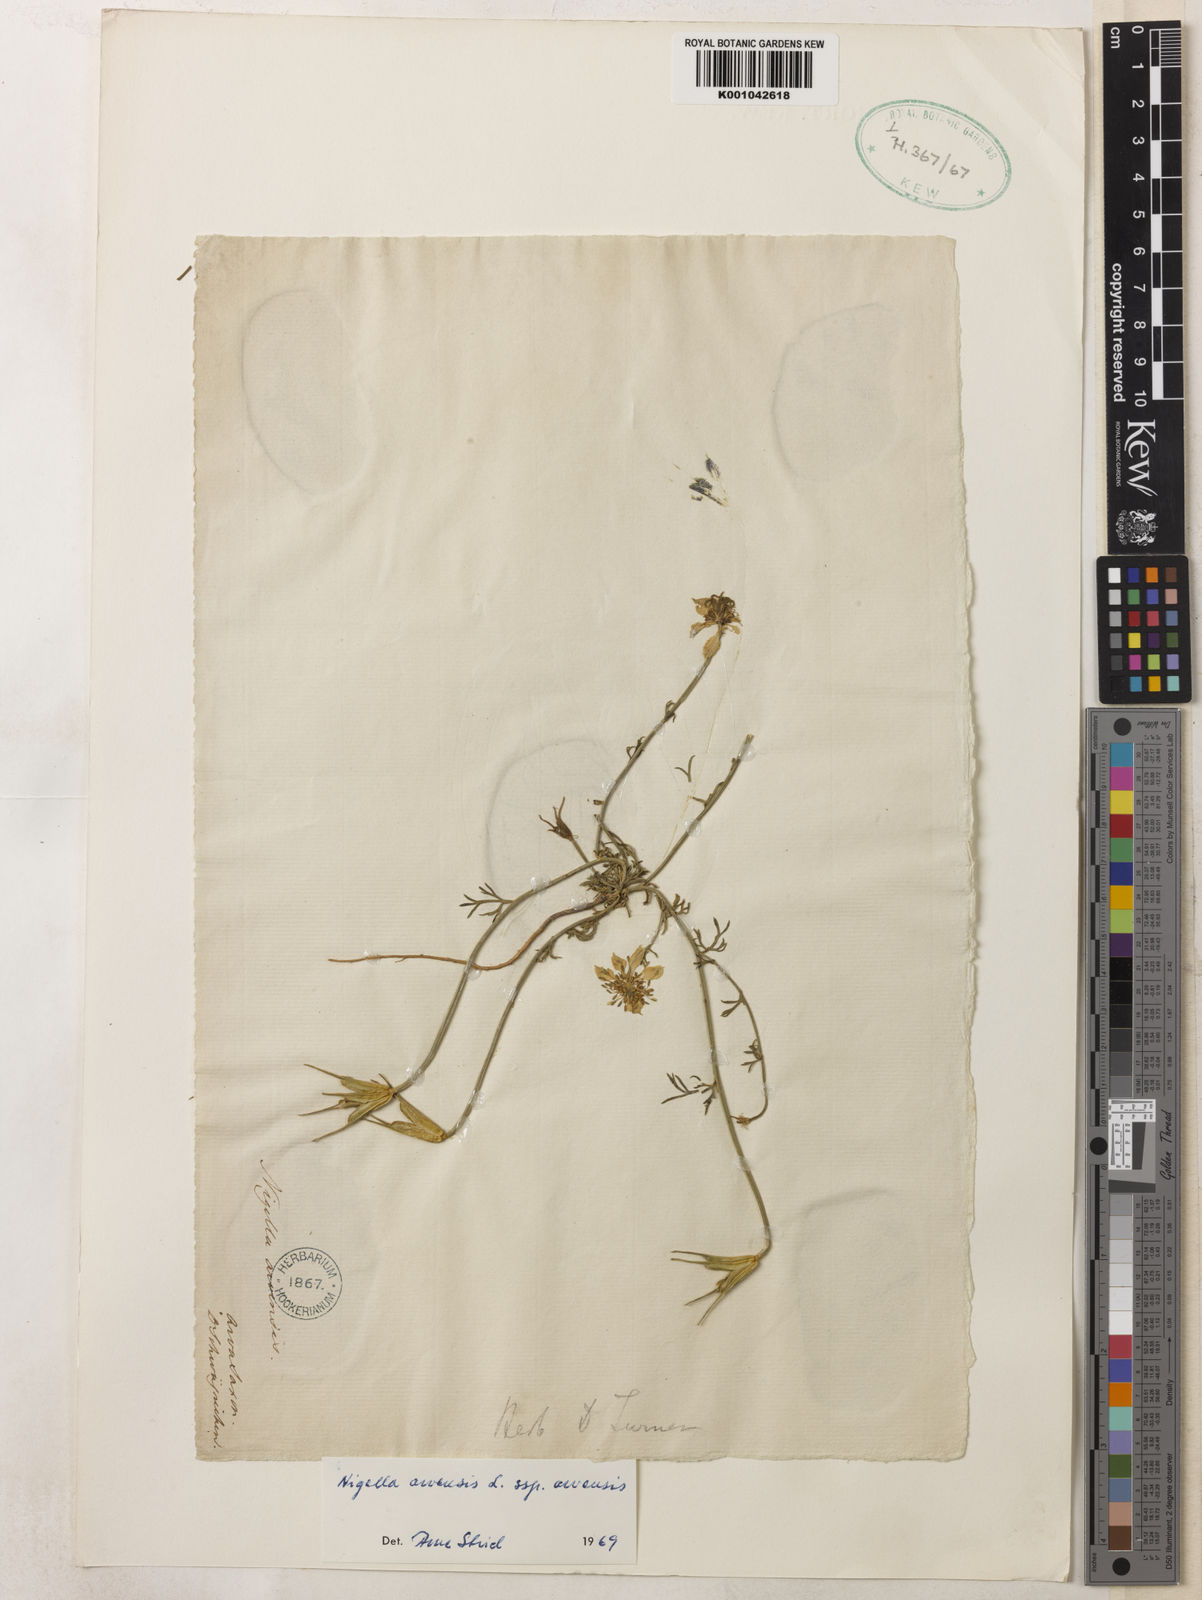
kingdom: Plantae
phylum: Tracheophyta
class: Magnoliopsida
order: Ranunculales
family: Ranunculaceae
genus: Nigella
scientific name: Nigella arvensis
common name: Wild fennel-flower
